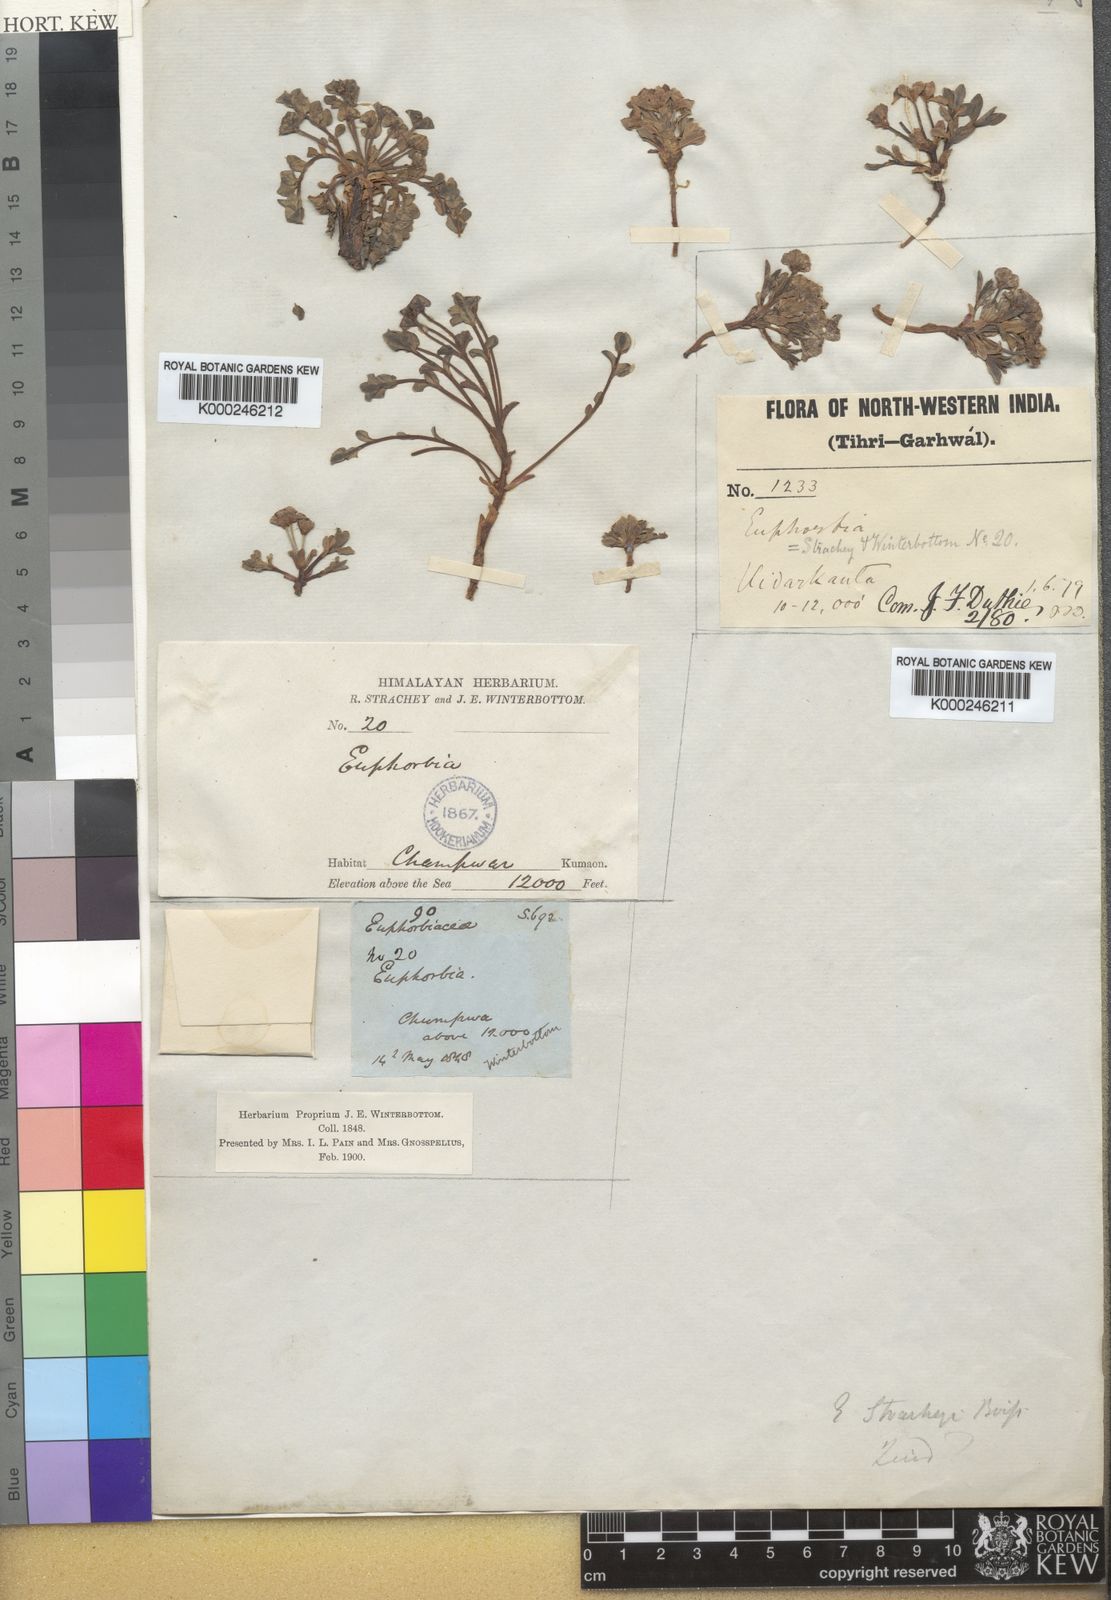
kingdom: Plantae
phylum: Tracheophyta
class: Magnoliopsida
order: Malpighiales
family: Euphorbiaceae
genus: Euphorbia
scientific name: Euphorbia stracheyi
